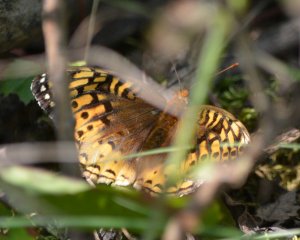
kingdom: Animalia
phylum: Arthropoda
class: Insecta
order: Lepidoptera
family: Nymphalidae
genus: Speyeria
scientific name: Speyeria cybele
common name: Great Spangled Fritillary
